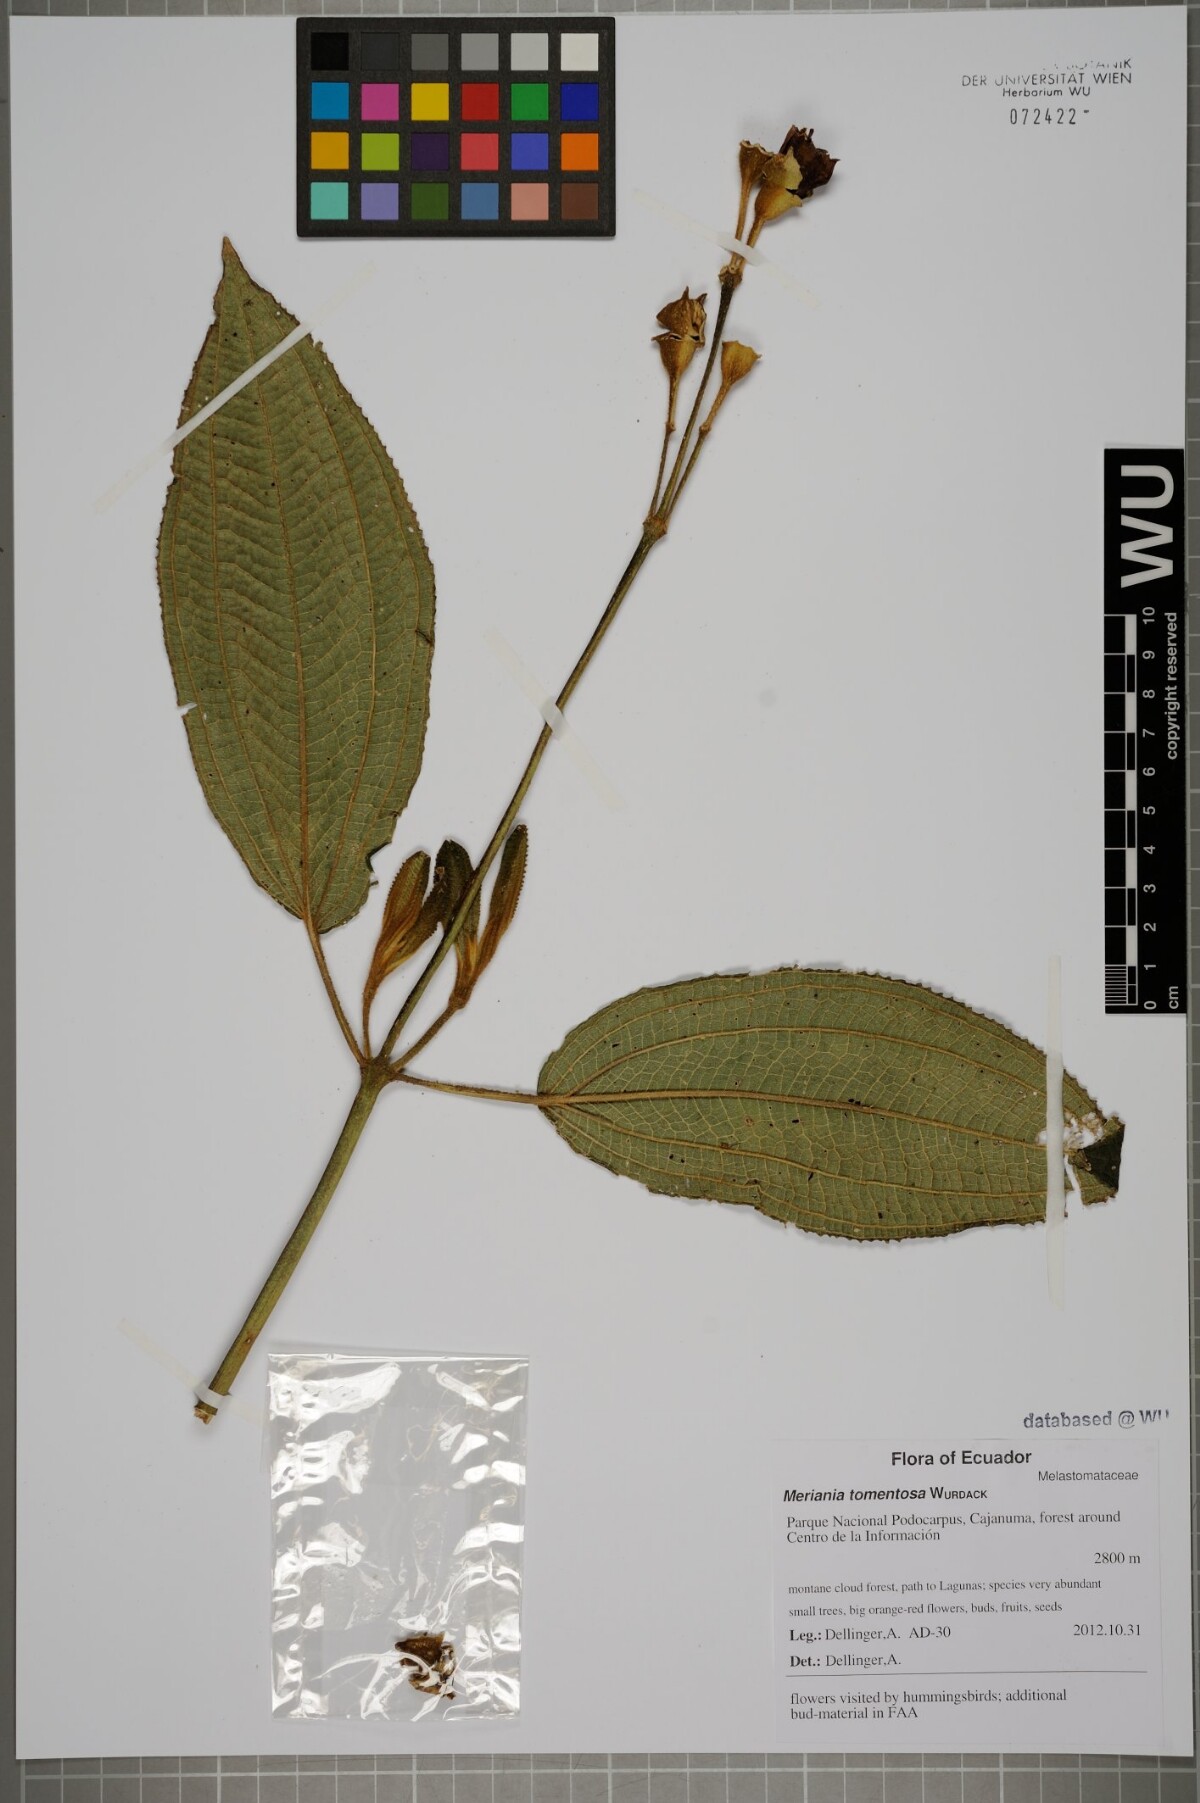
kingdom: Plantae
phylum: Tracheophyta
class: Magnoliopsida
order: Myrtales
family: Melastomataceae
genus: Meriania
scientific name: Meriania tomentosa
